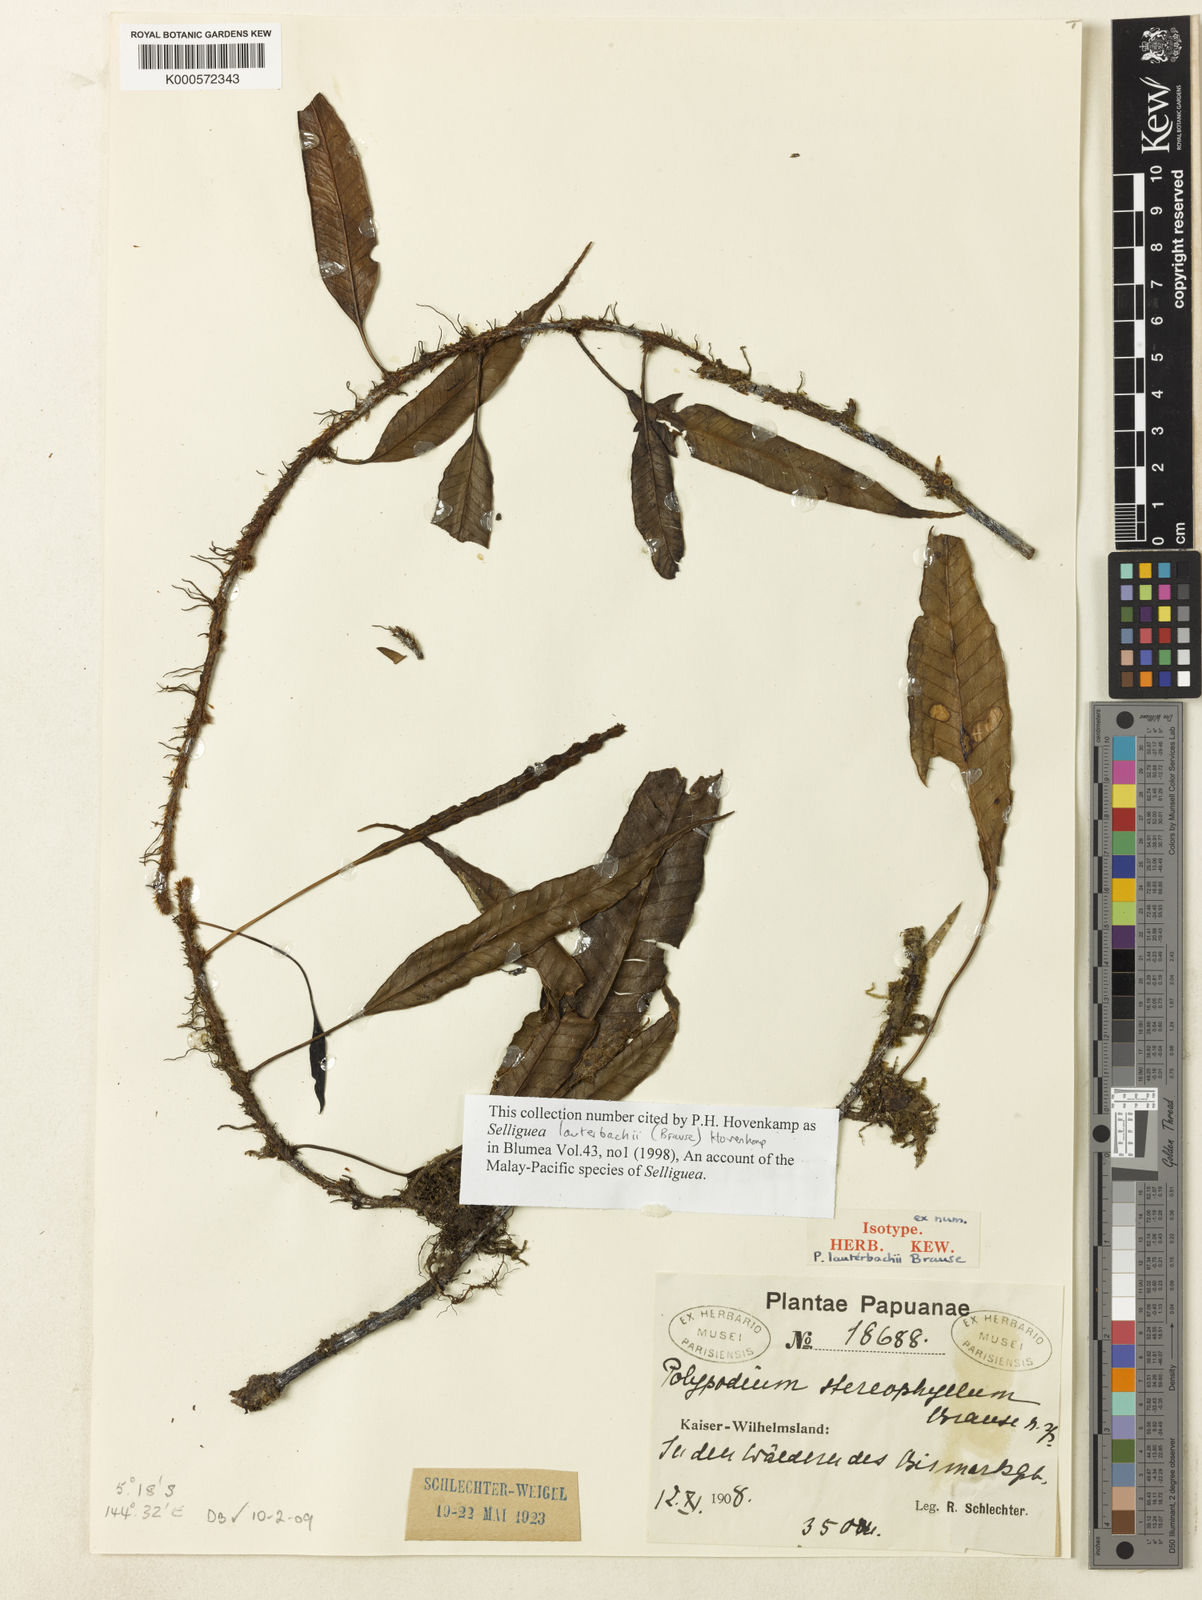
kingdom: Plantae
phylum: Tracheophyta
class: Polypodiopsida
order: Polypodiales
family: Polypodiaceae
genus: Selliguea
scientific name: Selliguea lauterbachii
